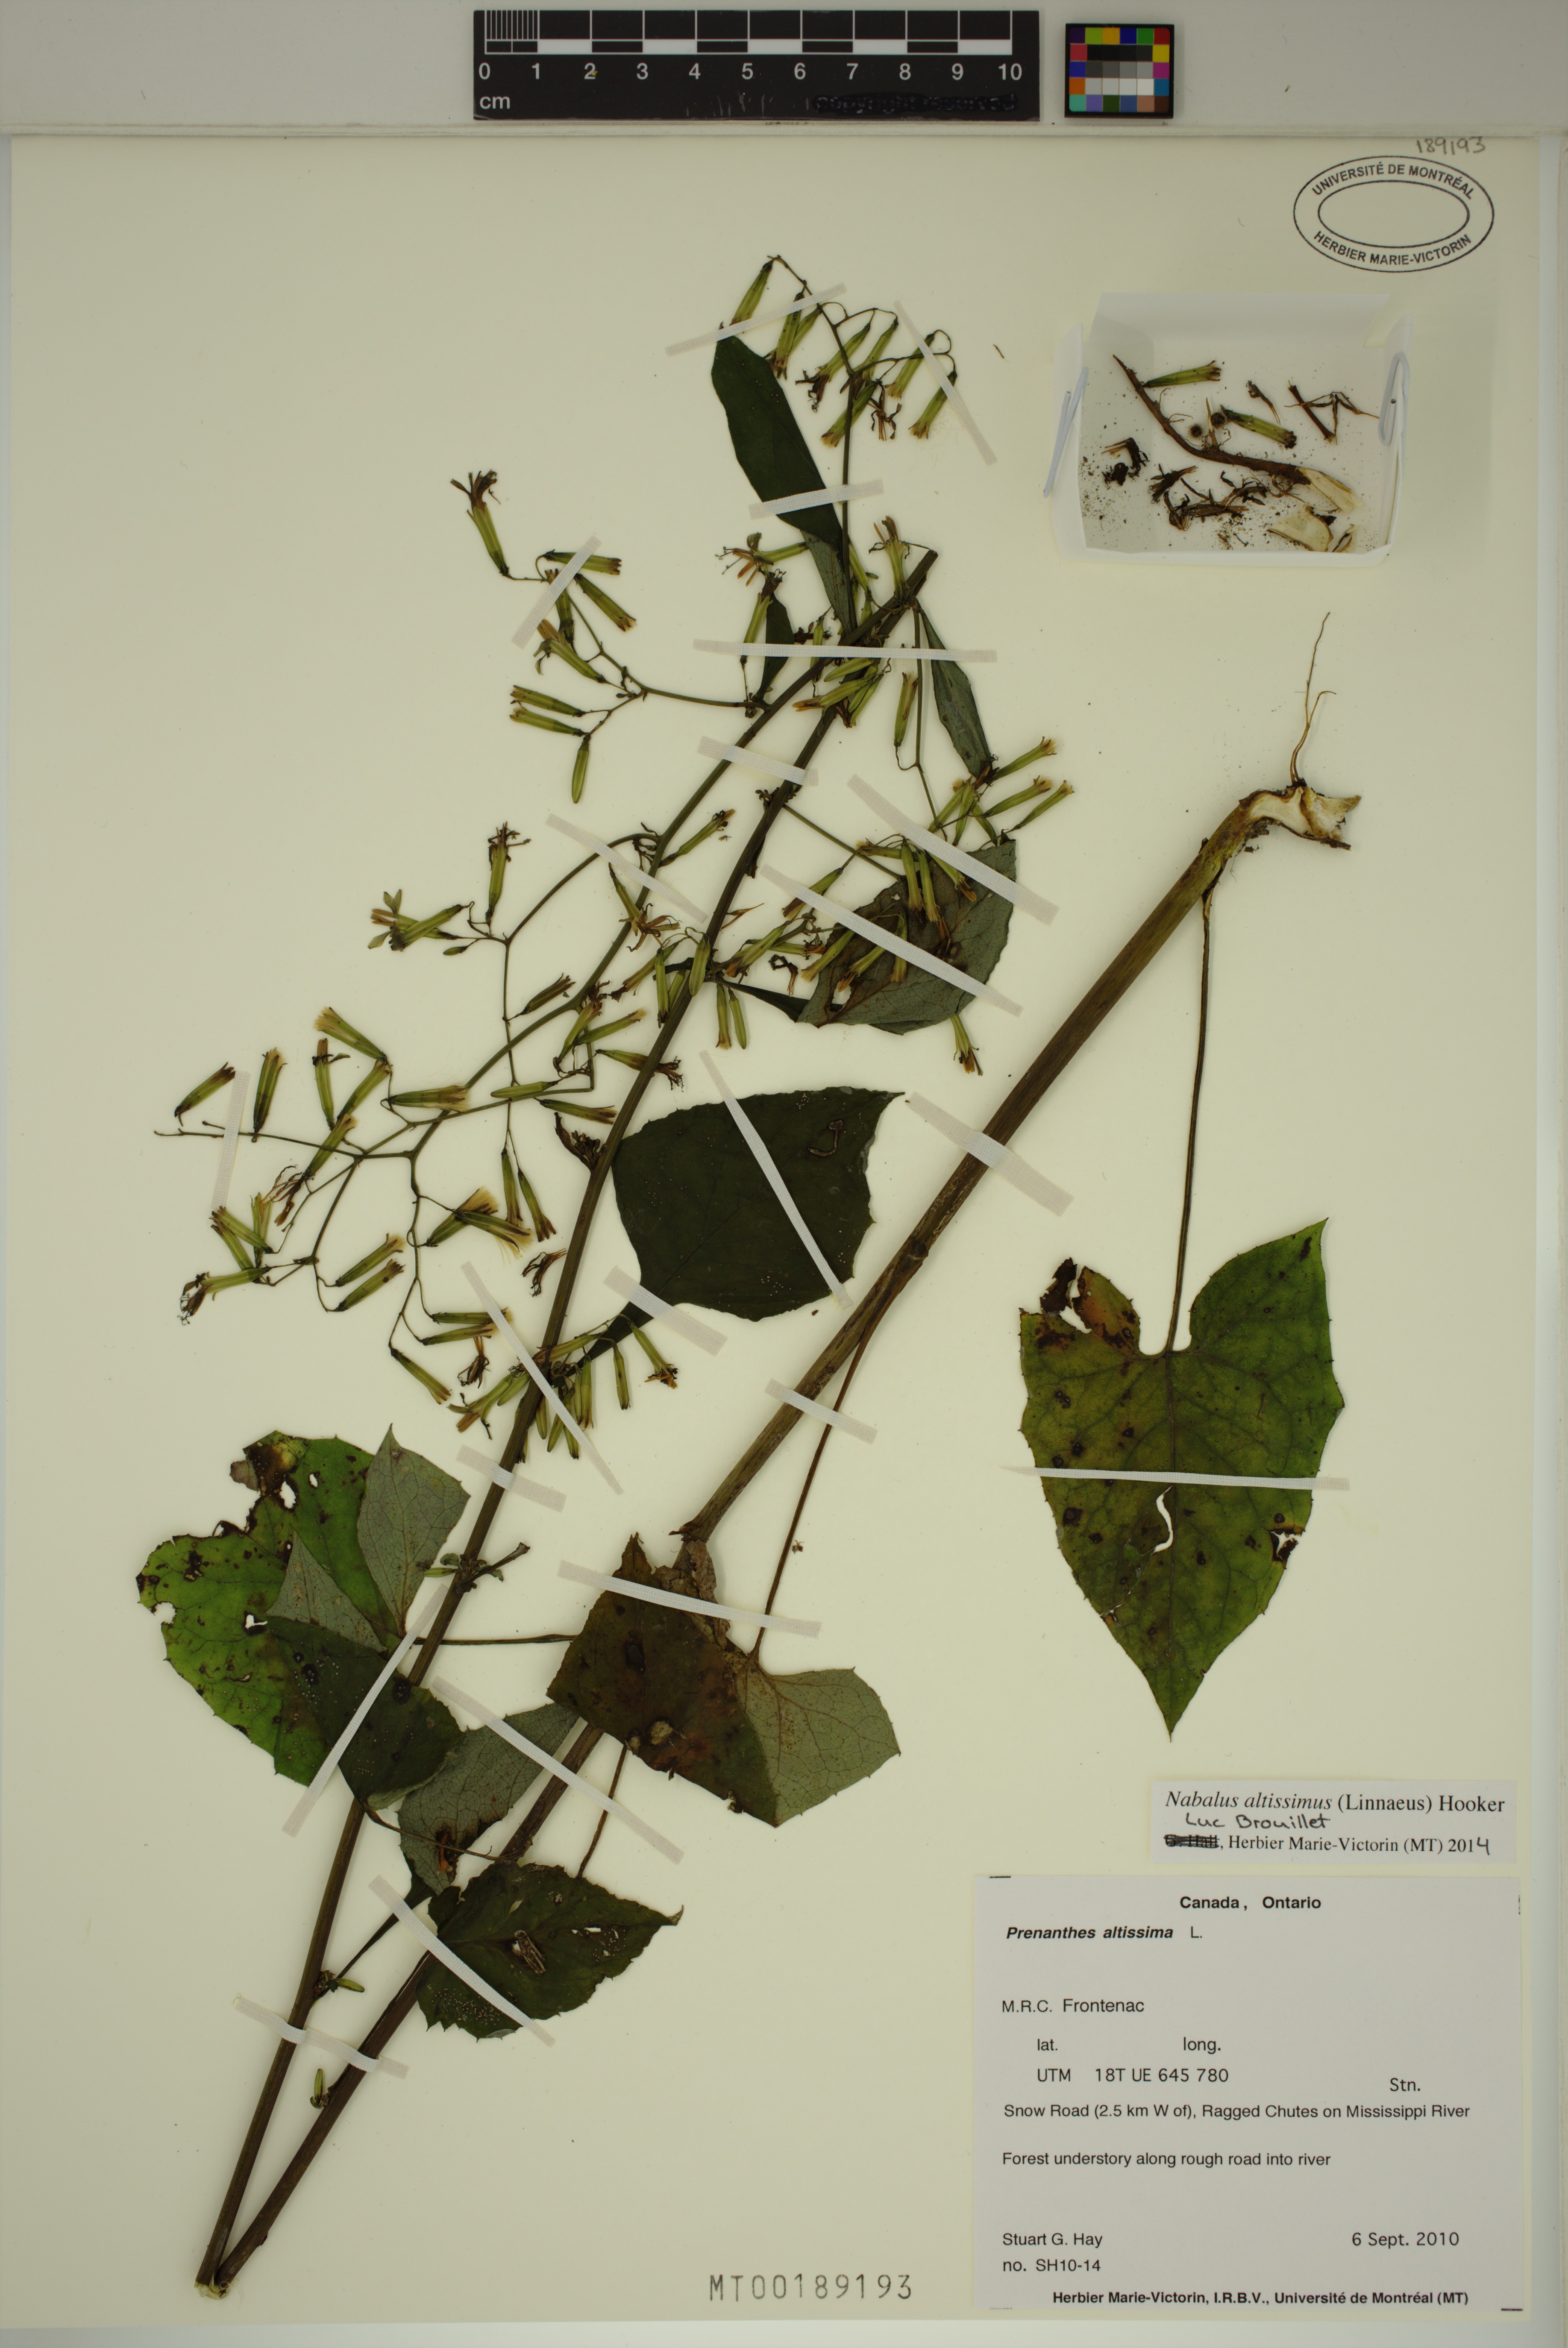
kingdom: Plantae
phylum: Tracheophyta
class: Magnoliopsida
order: Asterales
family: Asteraceae
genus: Nabalus
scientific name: Nabalus altissima
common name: Tall rattlesnakeroot
